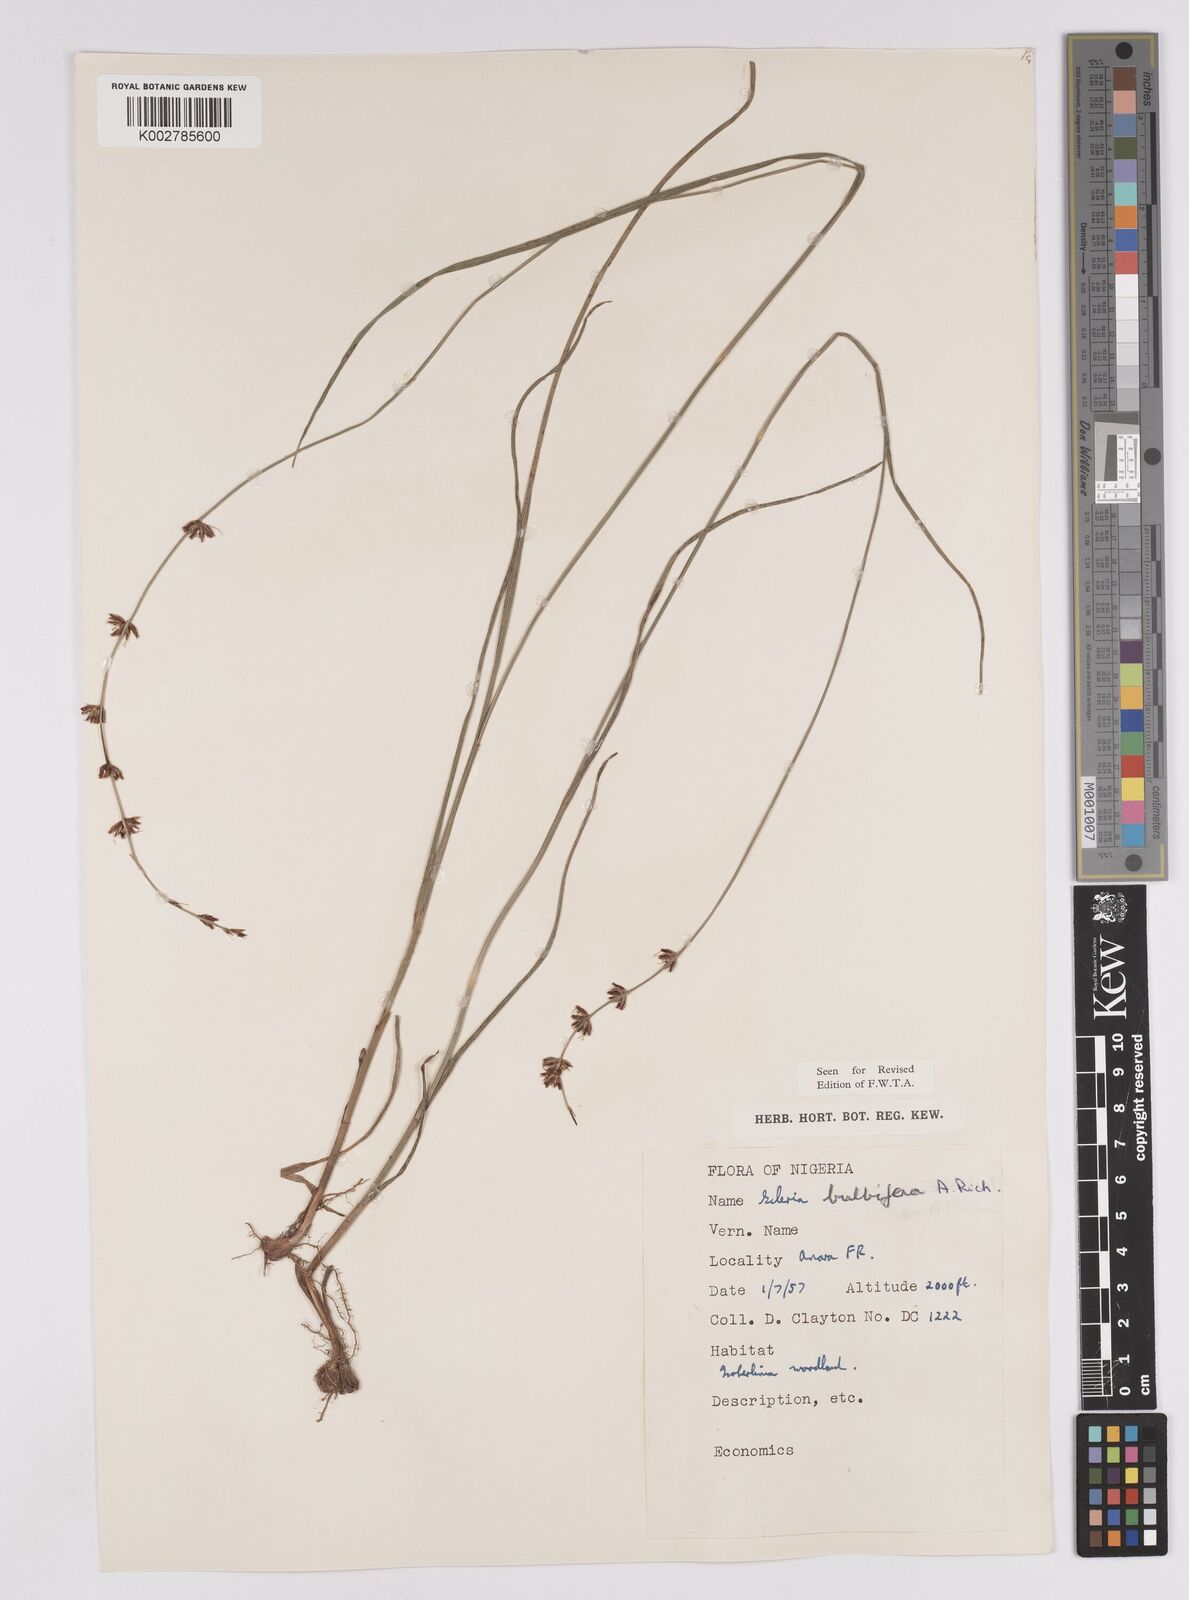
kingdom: Plantae
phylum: Tracheophyta
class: Liliopsida
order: Poales
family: Cyperaceae
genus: Scleria
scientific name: Scleria bulbifera
